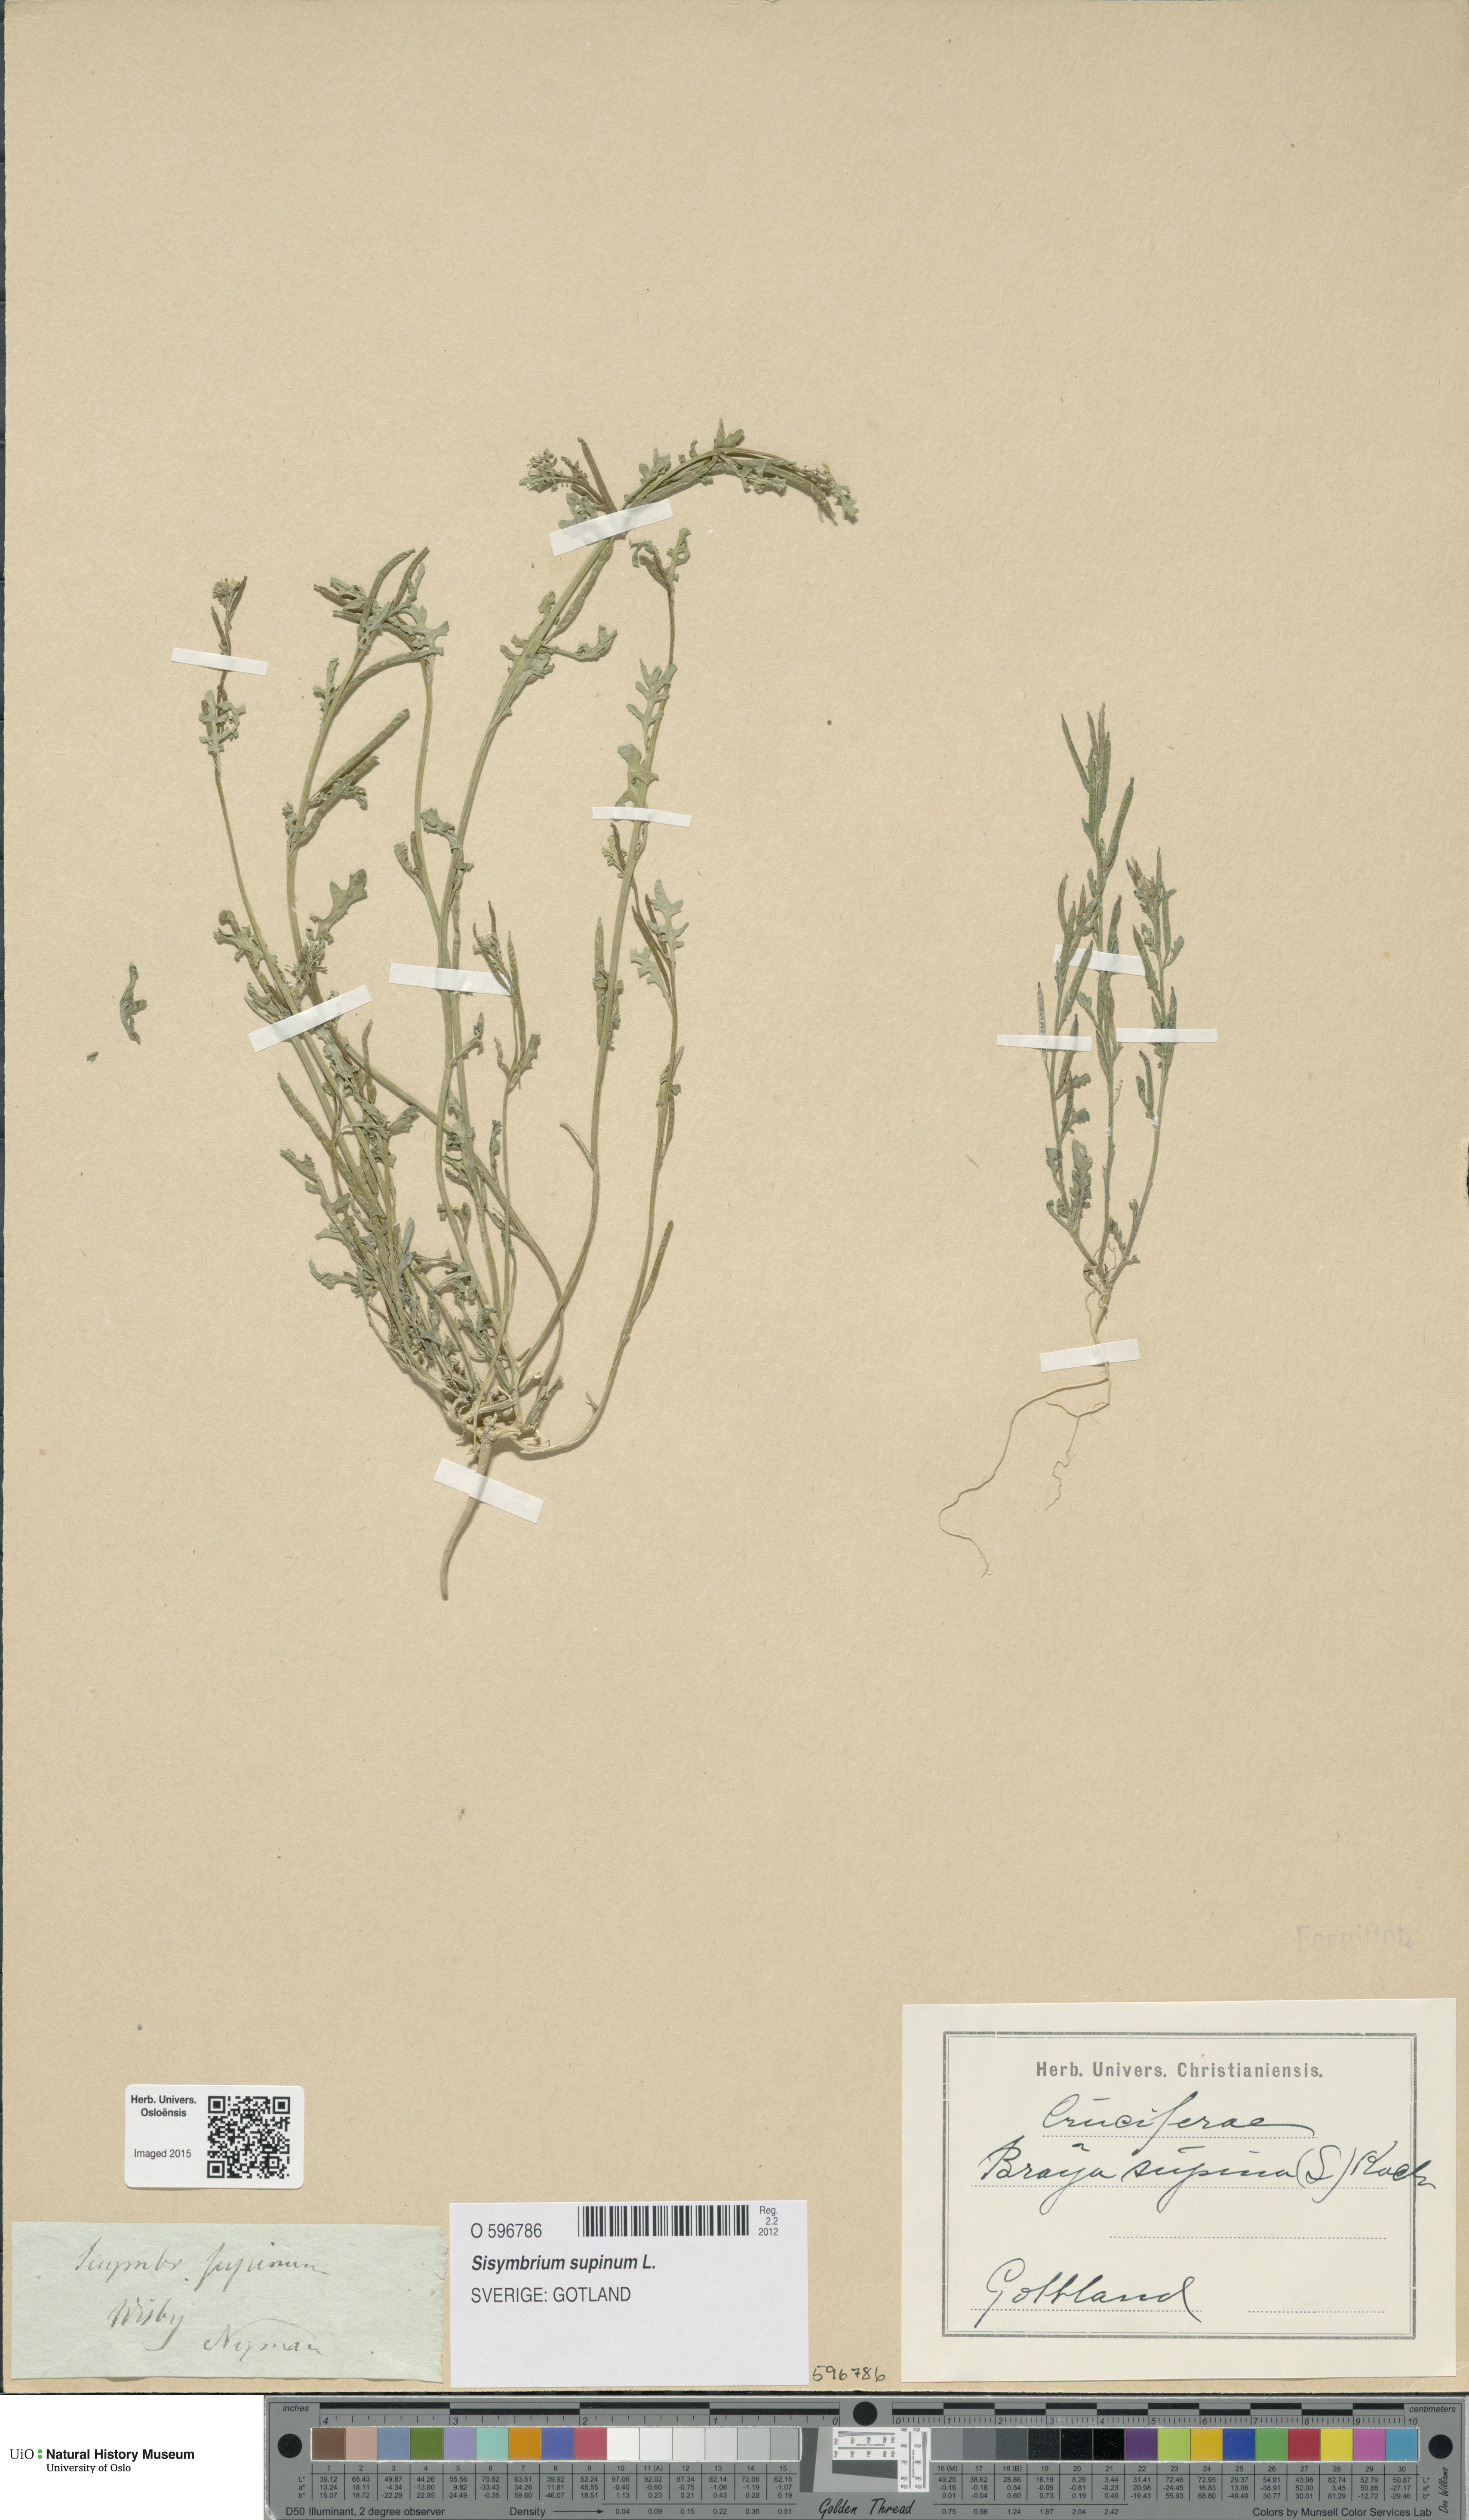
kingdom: Plantae
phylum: Tracheophyta
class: Magnoliopsida
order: Brassicales
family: Brassicaceae
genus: Erucastrum
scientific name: Erucastrum supinum
